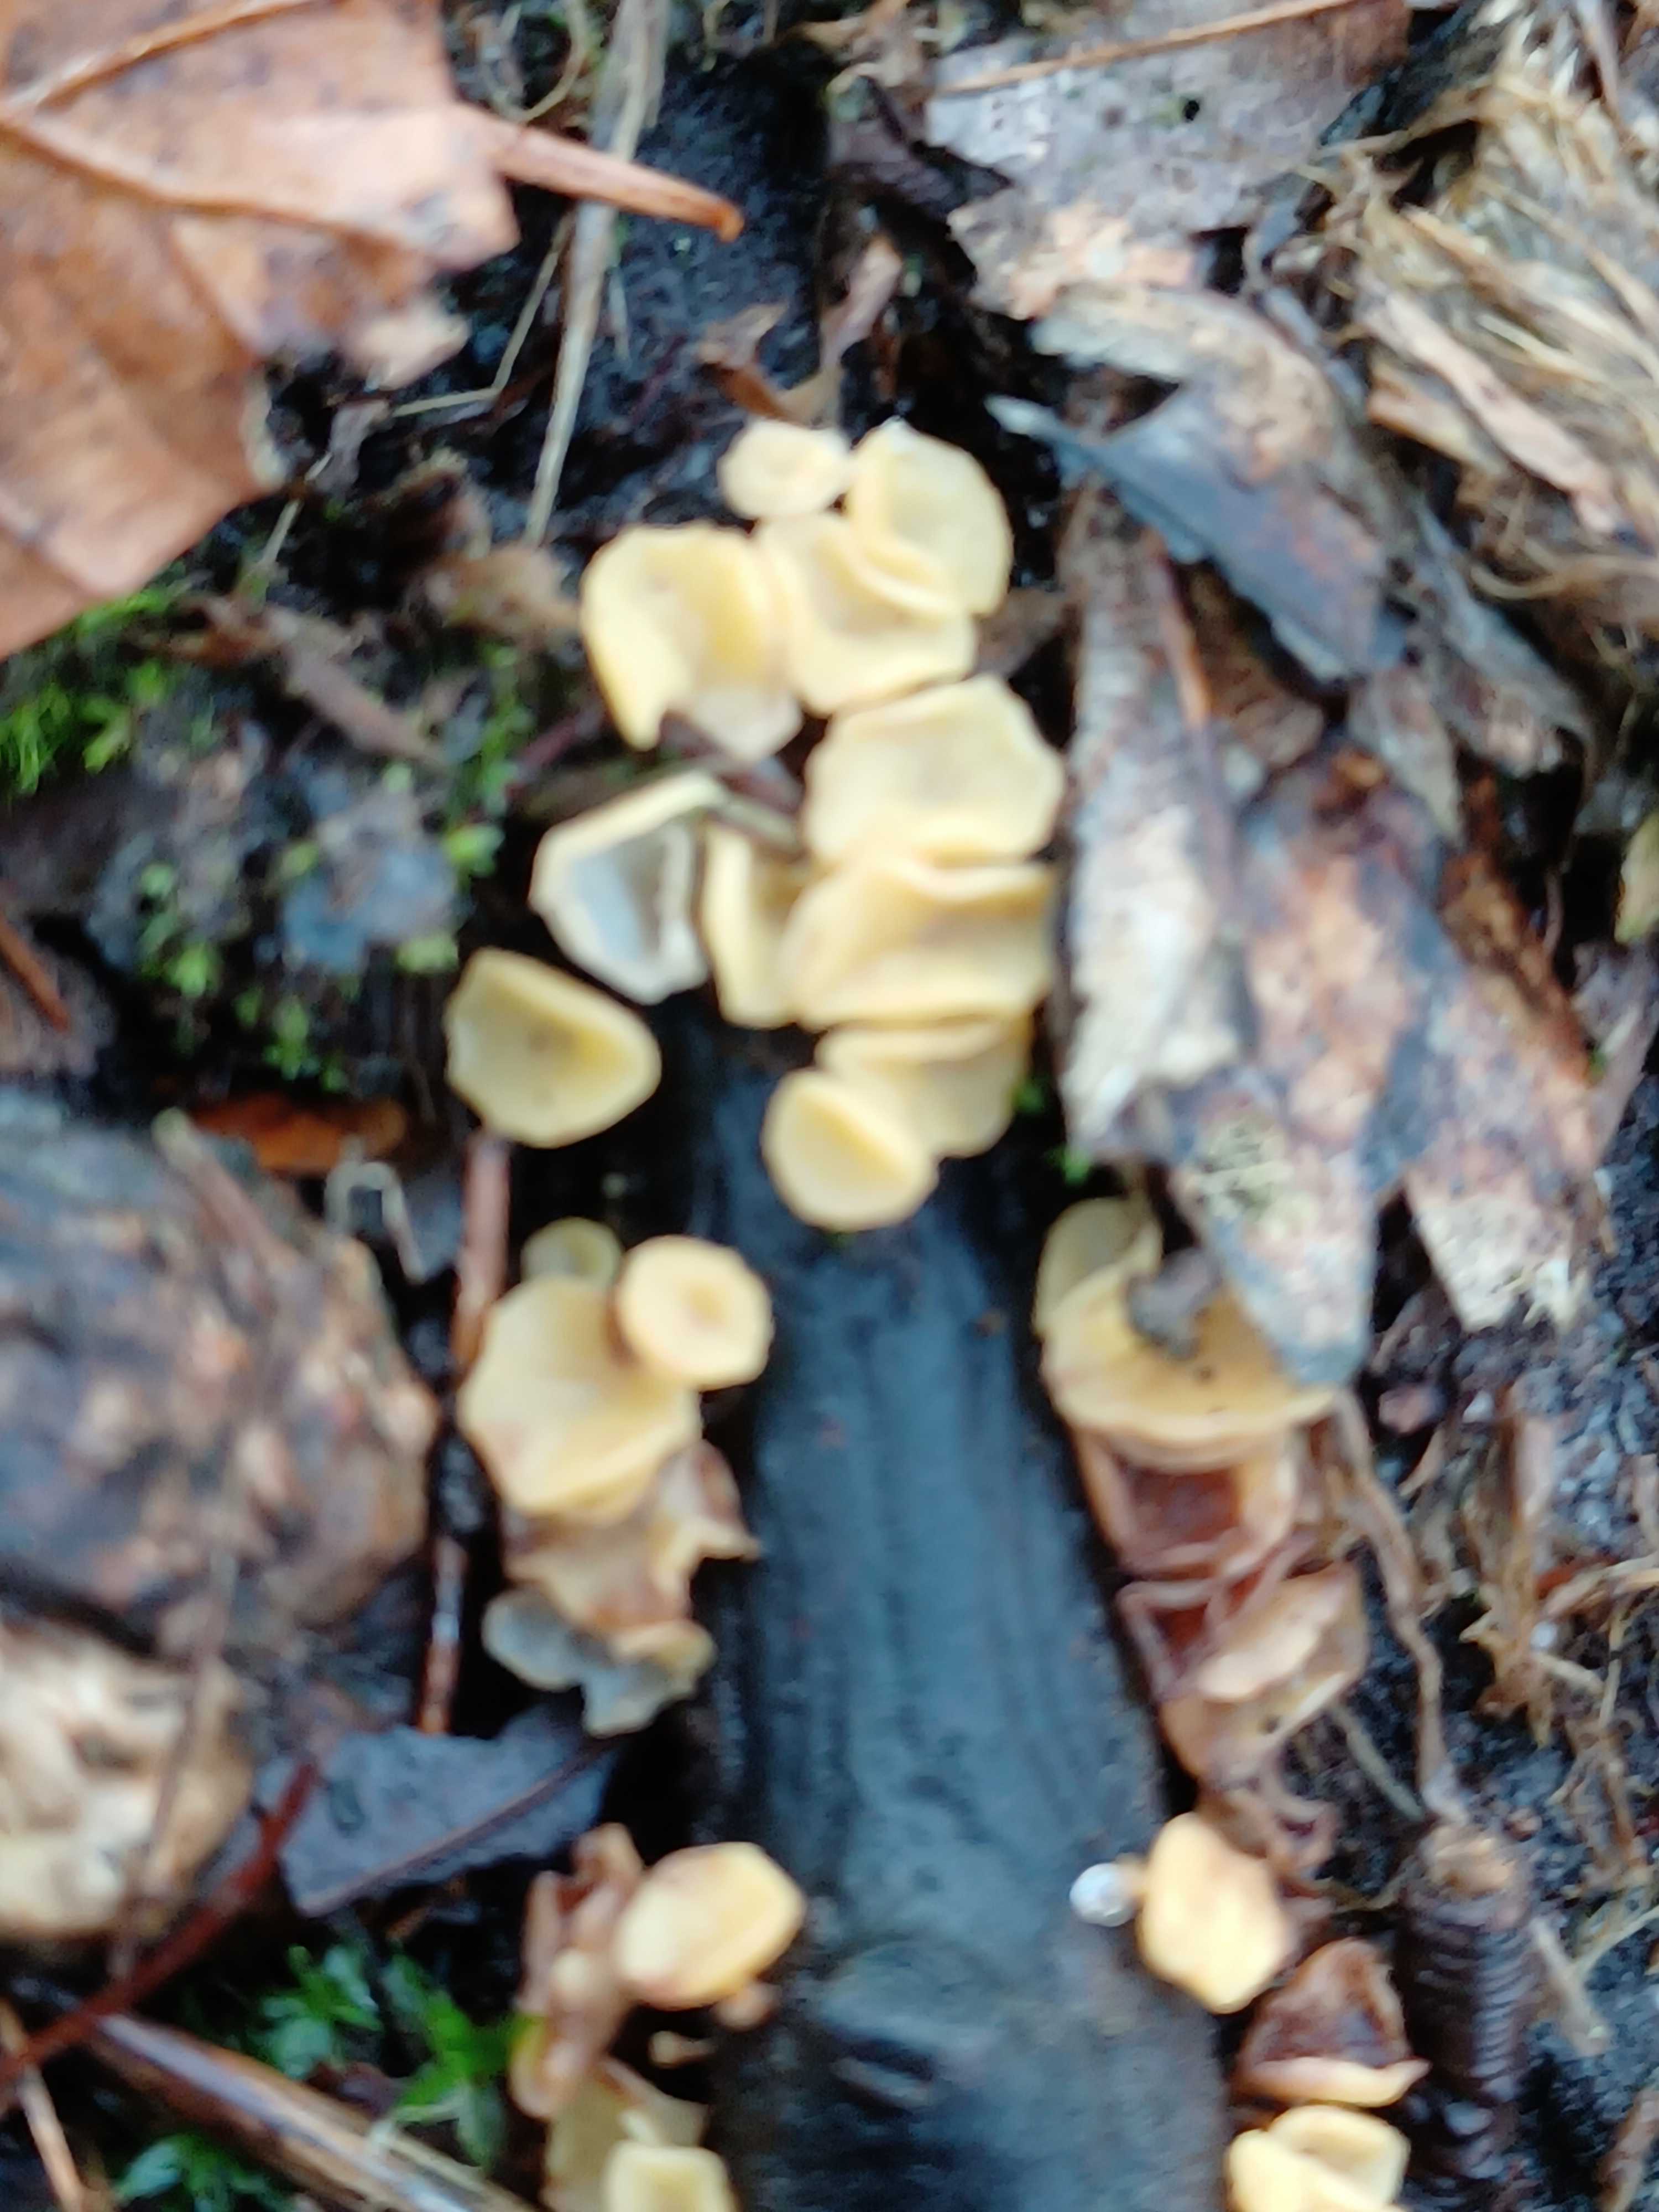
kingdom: Fungi
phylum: Ascomycota
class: Leotiomycetes
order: Helotiales
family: Helotiaceae
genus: Hymenoscyphus
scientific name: Hymenoscyphus calyculus
